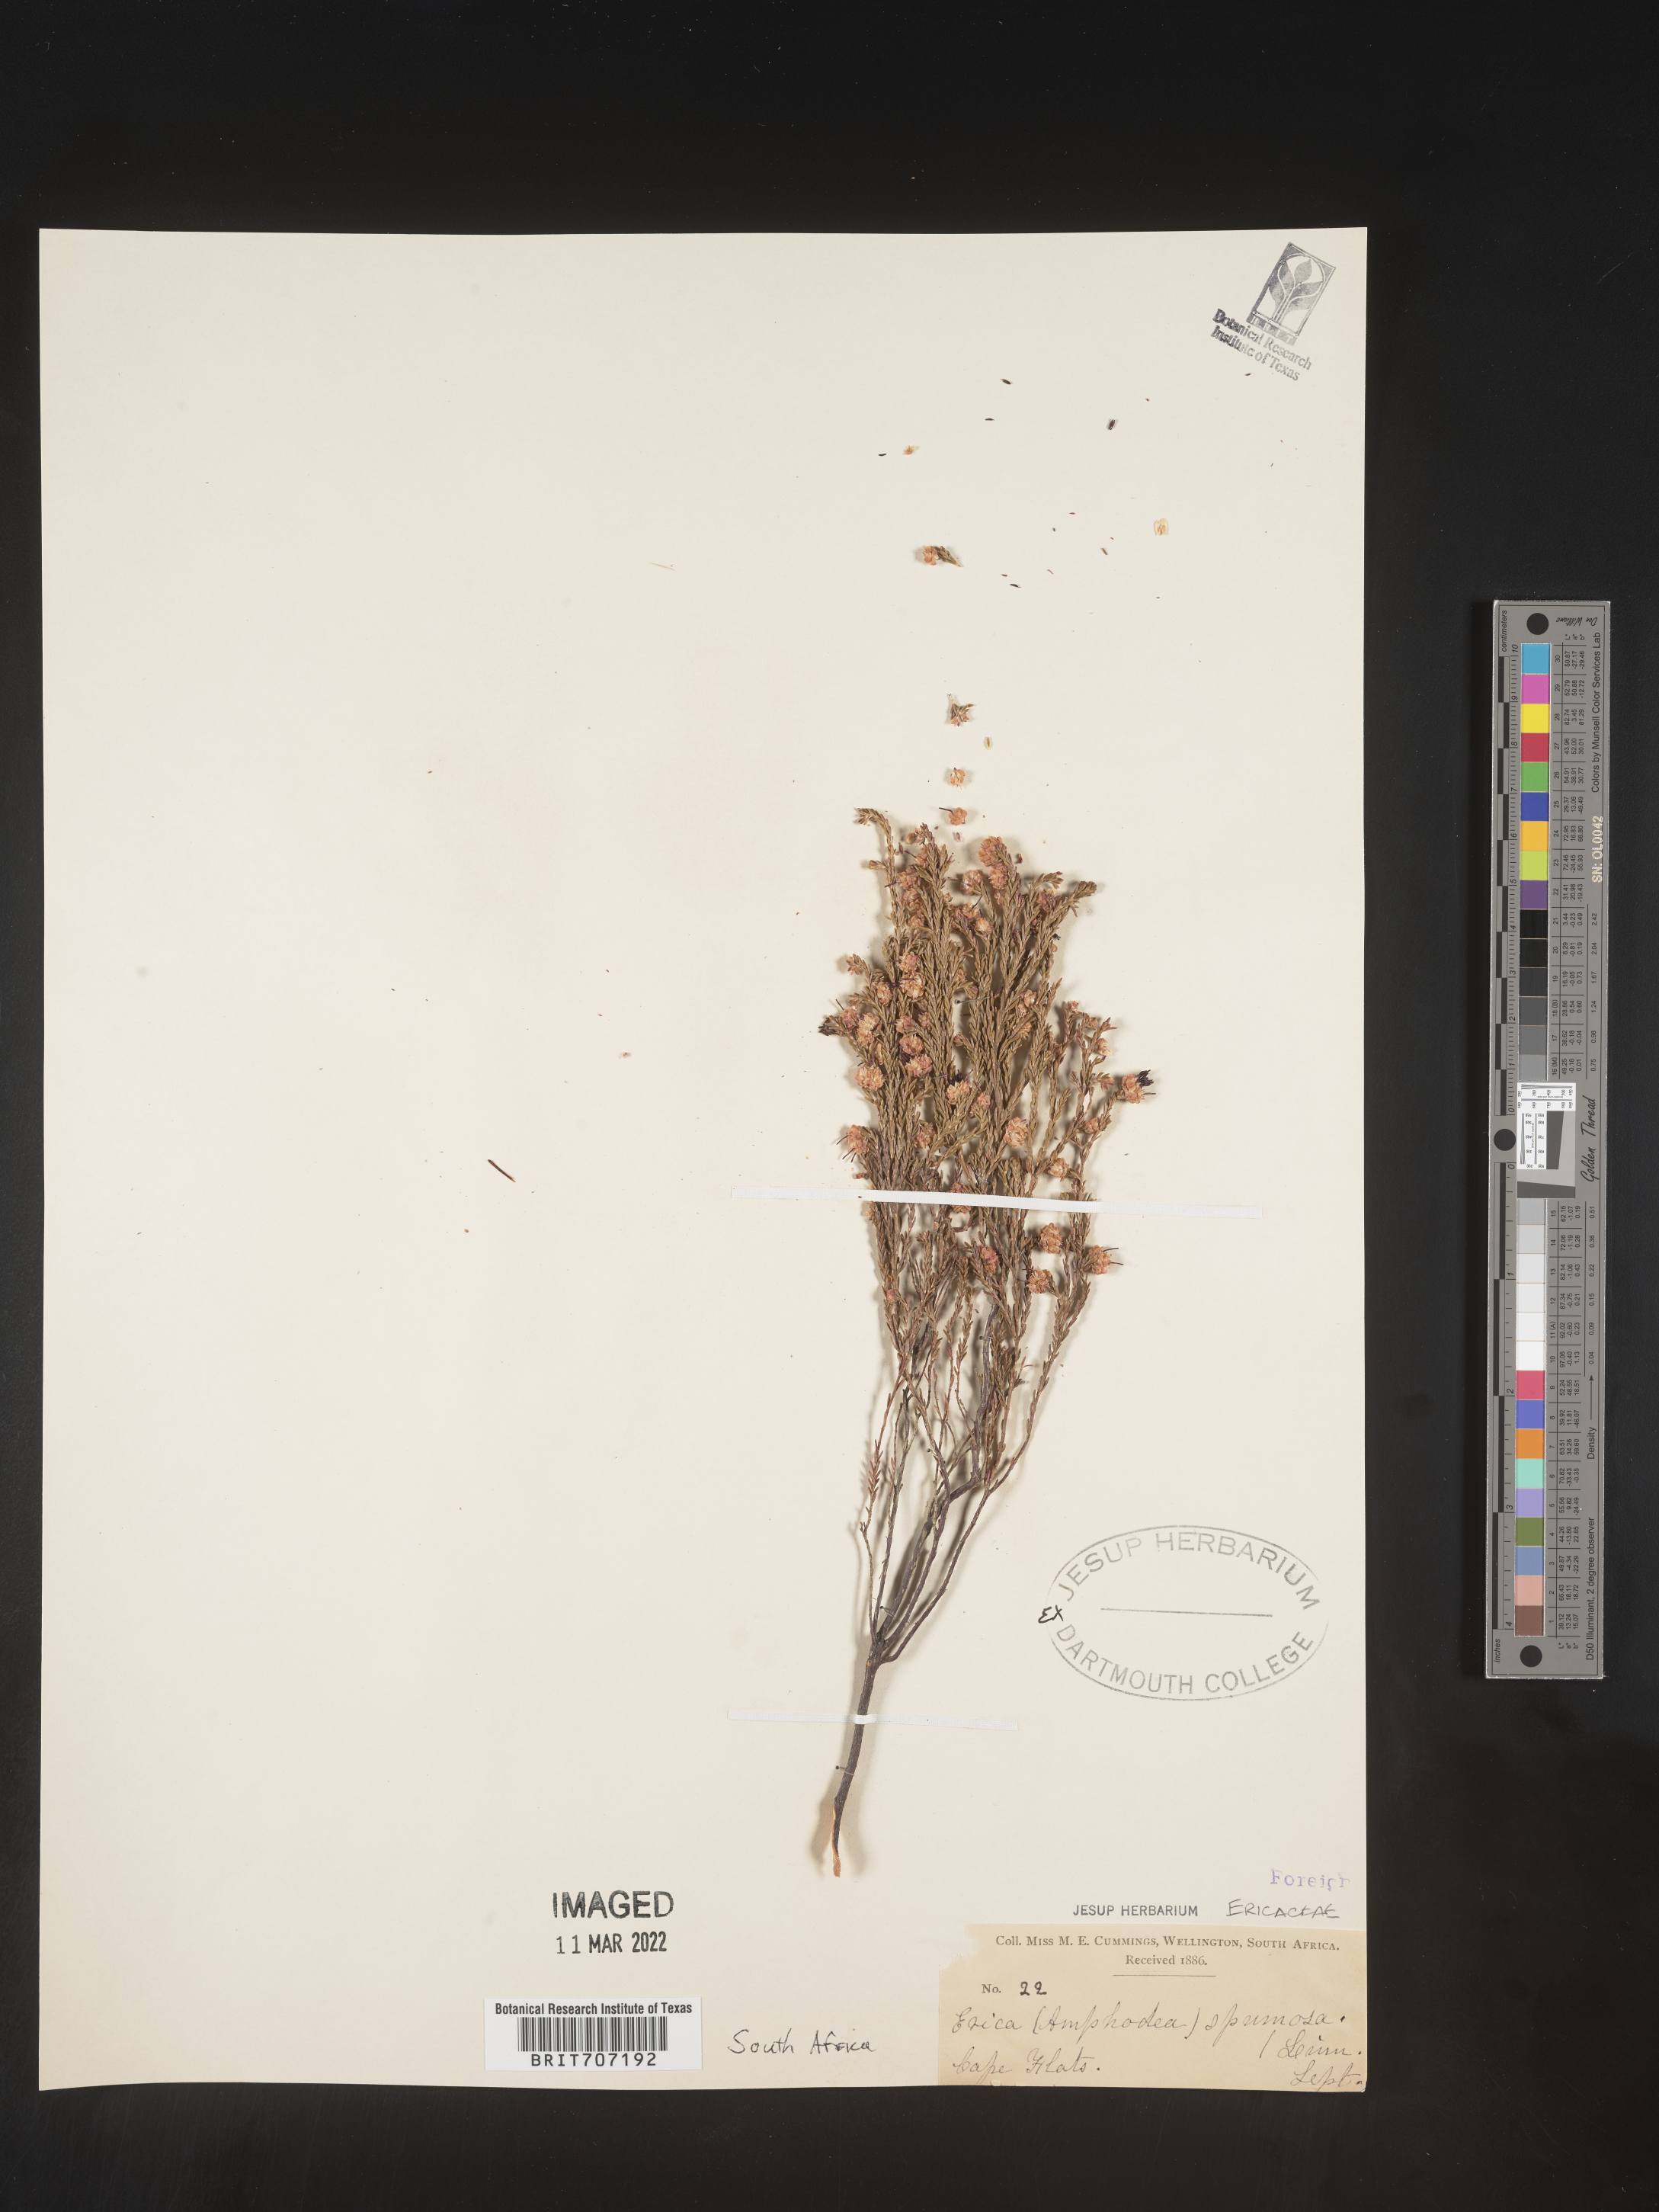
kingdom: Plantae
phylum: Tracheophyta
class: Magnoliopsida
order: Ericales
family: Ericaceae
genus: Erica
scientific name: Erica
